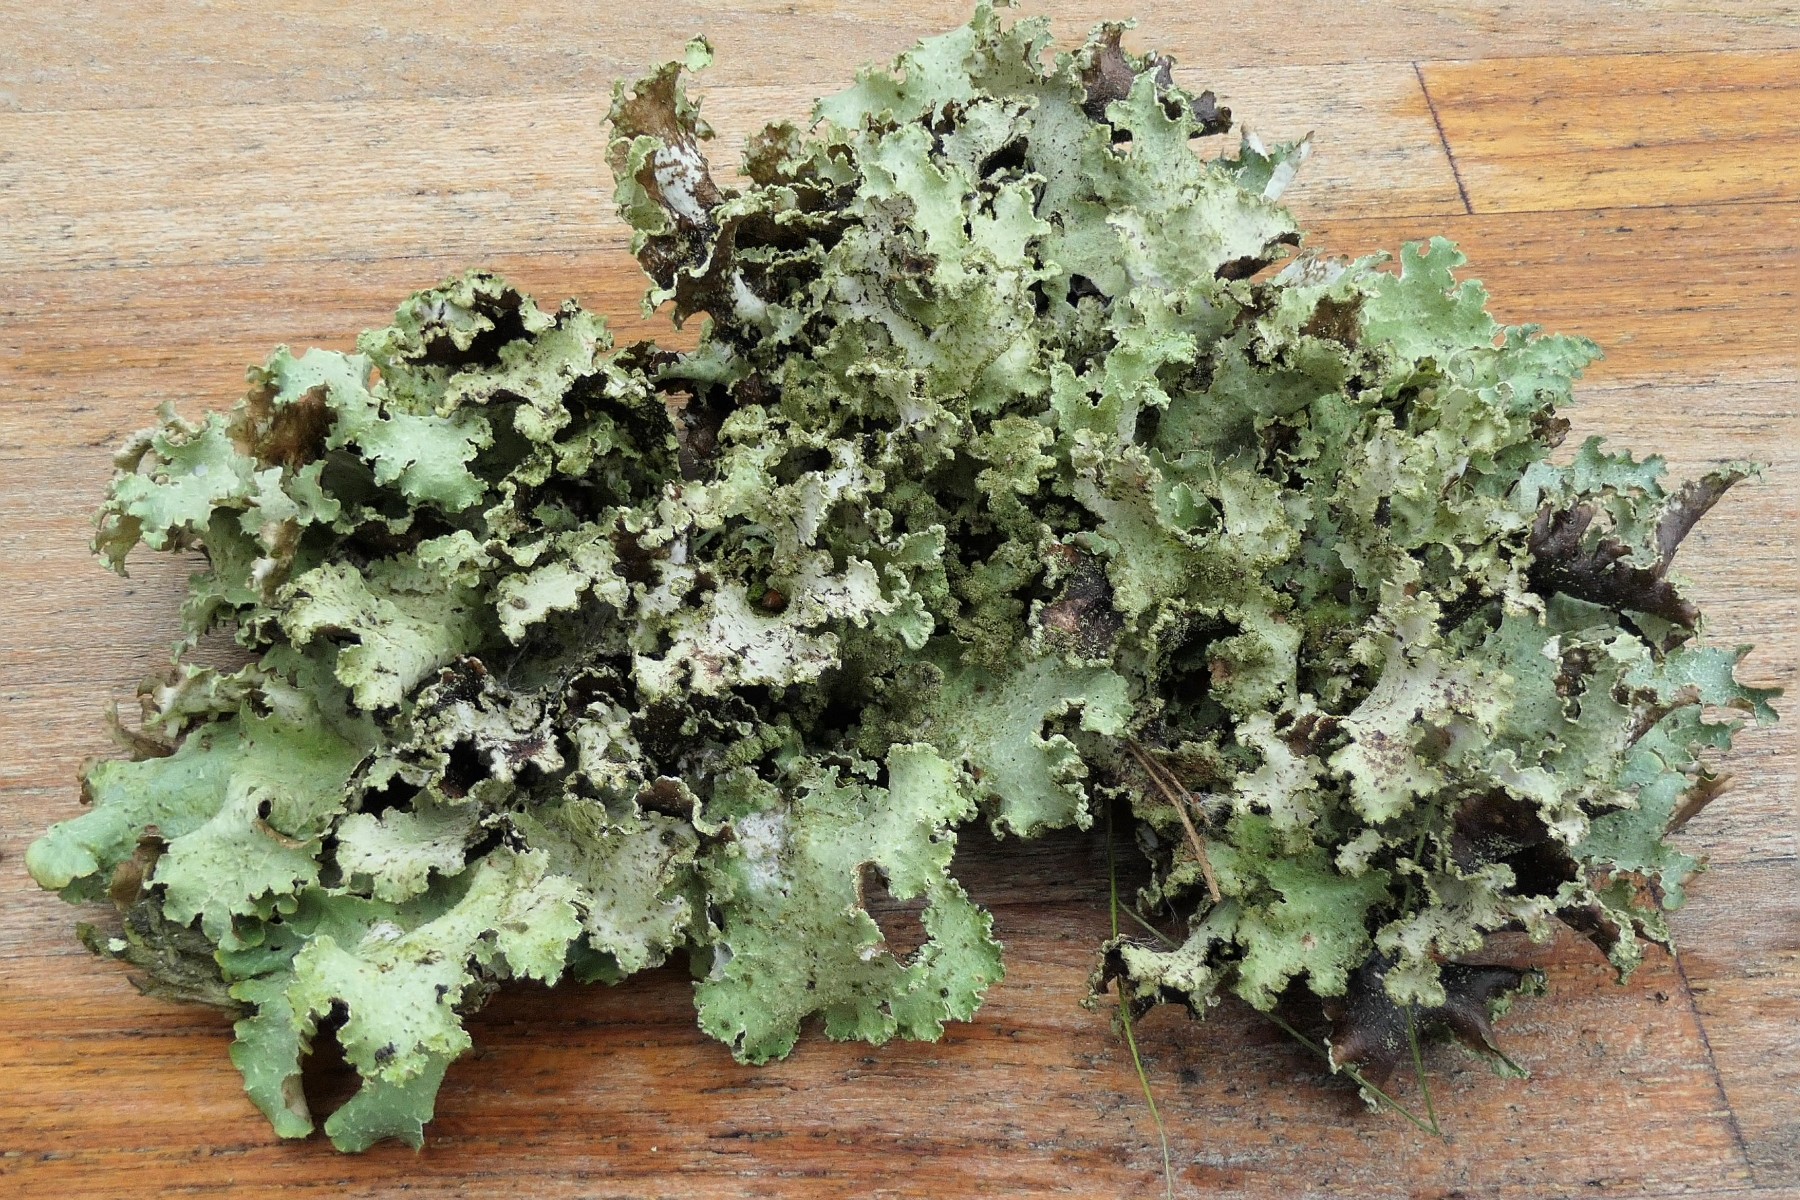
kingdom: Fungi
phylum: Ascomycota
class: Lecanoromycetes
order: Lecanorales
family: Parmeliaceae
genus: Platismatia
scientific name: Platismatia glauca
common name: blågrå papirlav
